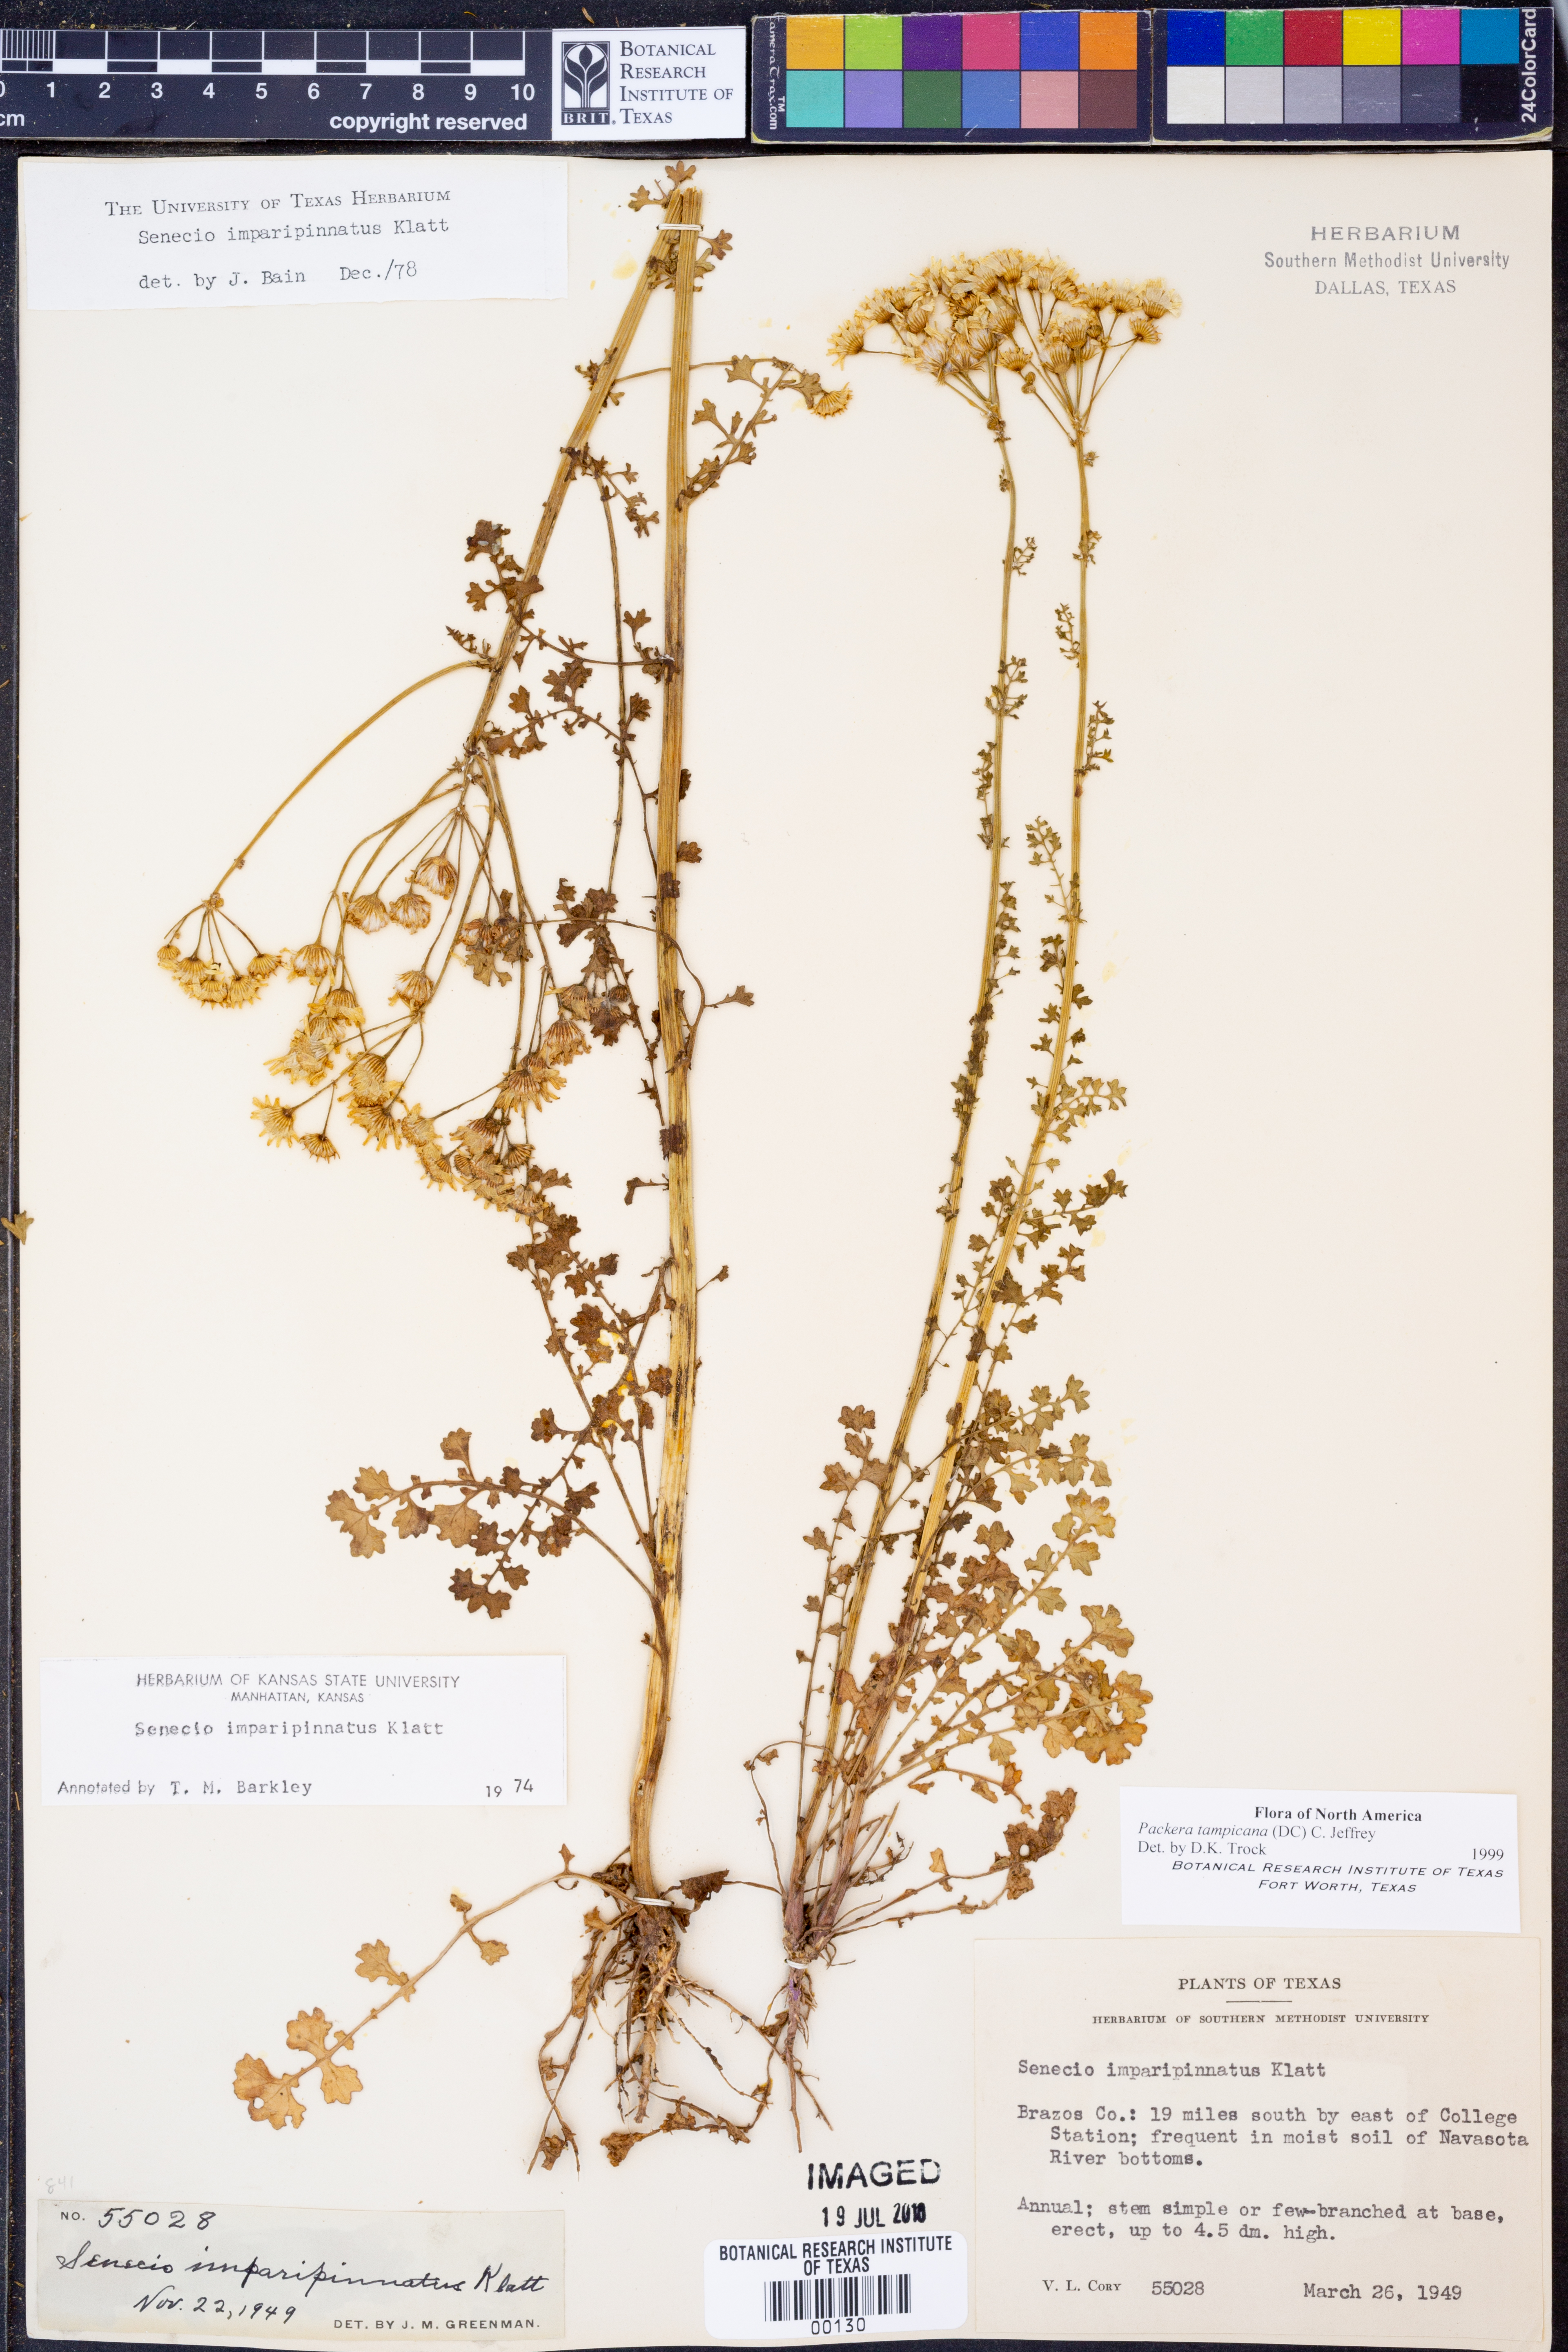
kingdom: Plantae
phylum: Tracheophyta
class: Magnoliopsida
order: Asterales
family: Asteraceae
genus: Packera
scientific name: Packera tampicana
